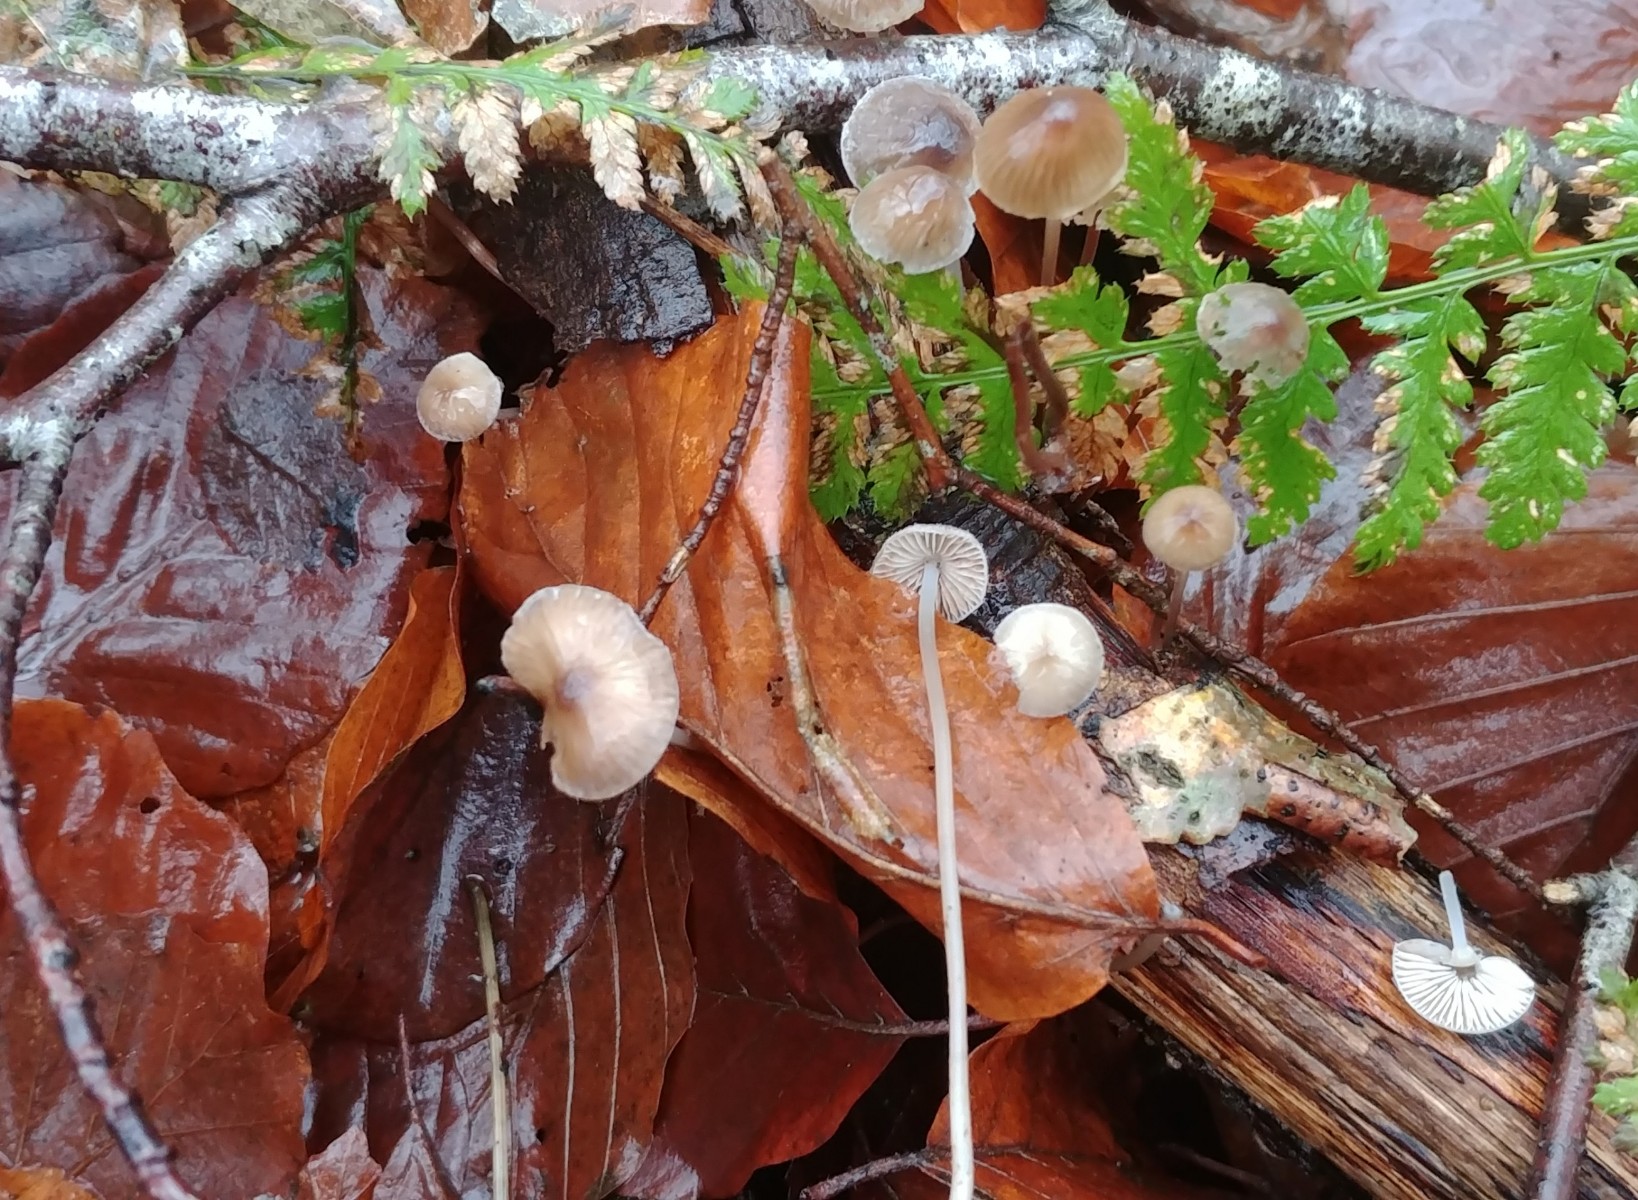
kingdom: Fungi
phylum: Basidiomycota
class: Agaricomycetes
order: Agaricales
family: Mycenaceae
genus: Mycena
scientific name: Mycena vitilis
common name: blankstokket huesvamp
